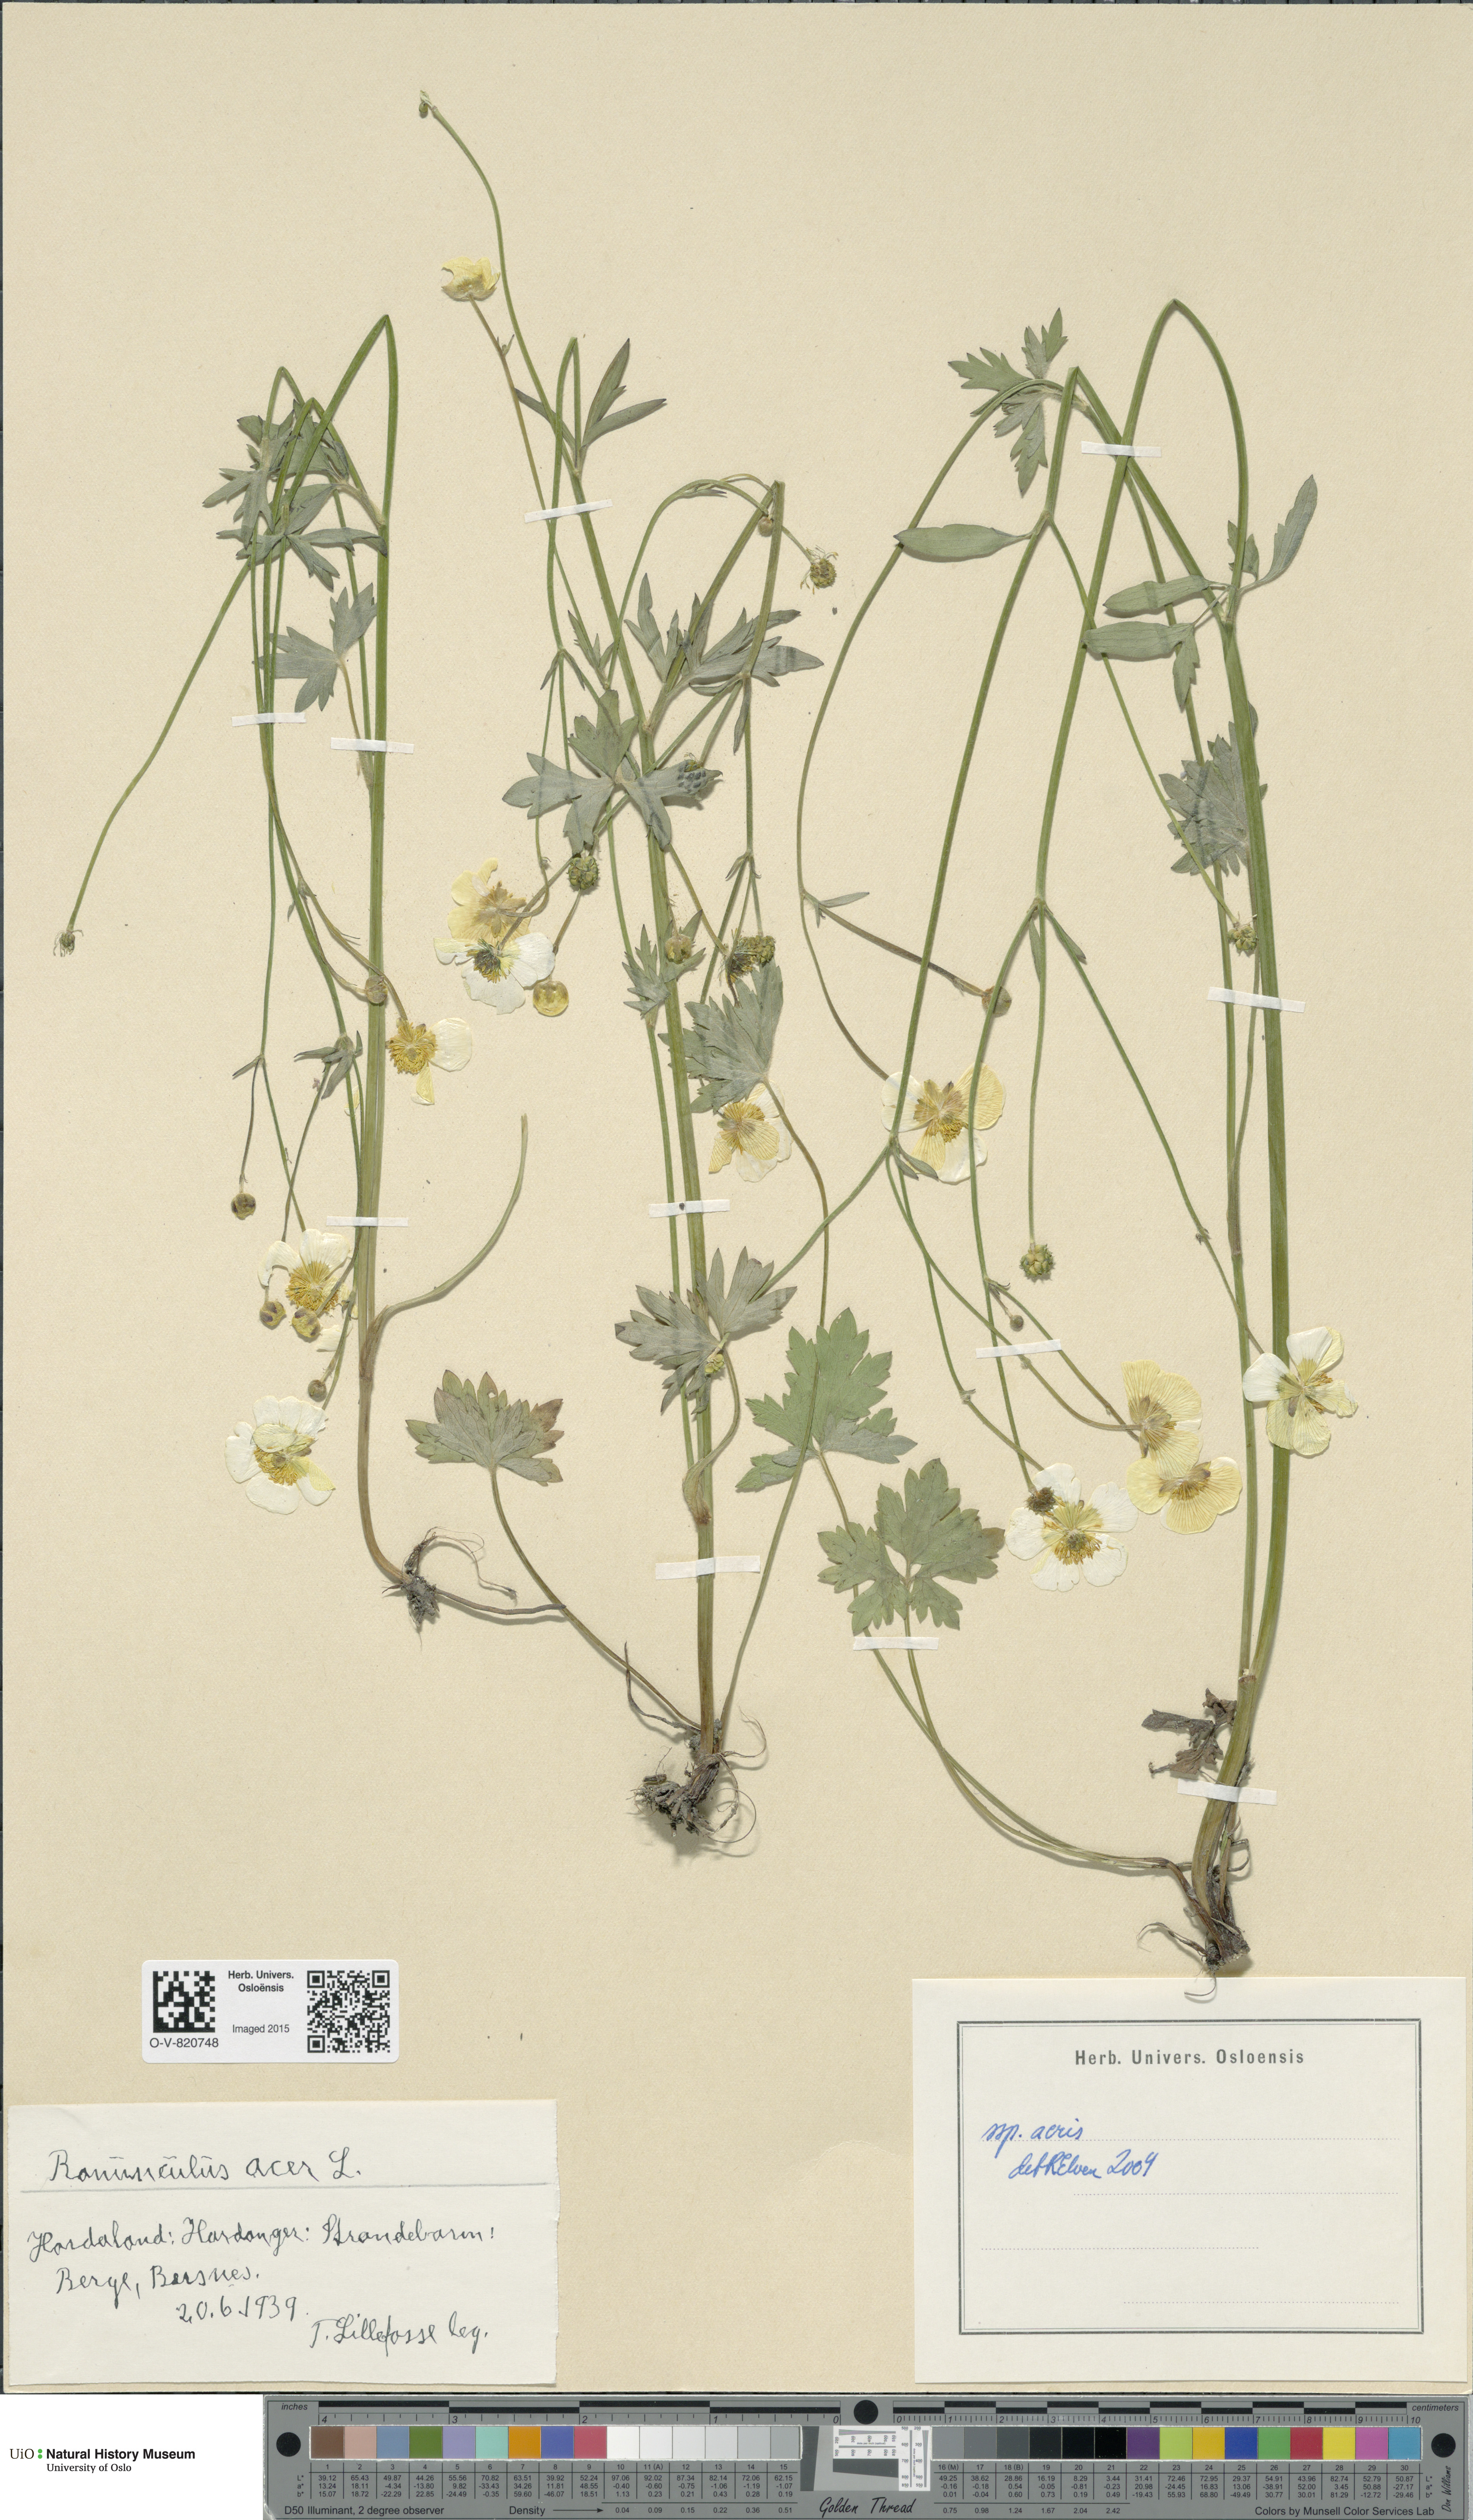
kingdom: Plantae
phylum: Tracheophyta
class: Magnoliopsida
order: Ranunculales
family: Ranunculaceae
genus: Ranunculus
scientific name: Ranunculus acris
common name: Meadow buttercup
